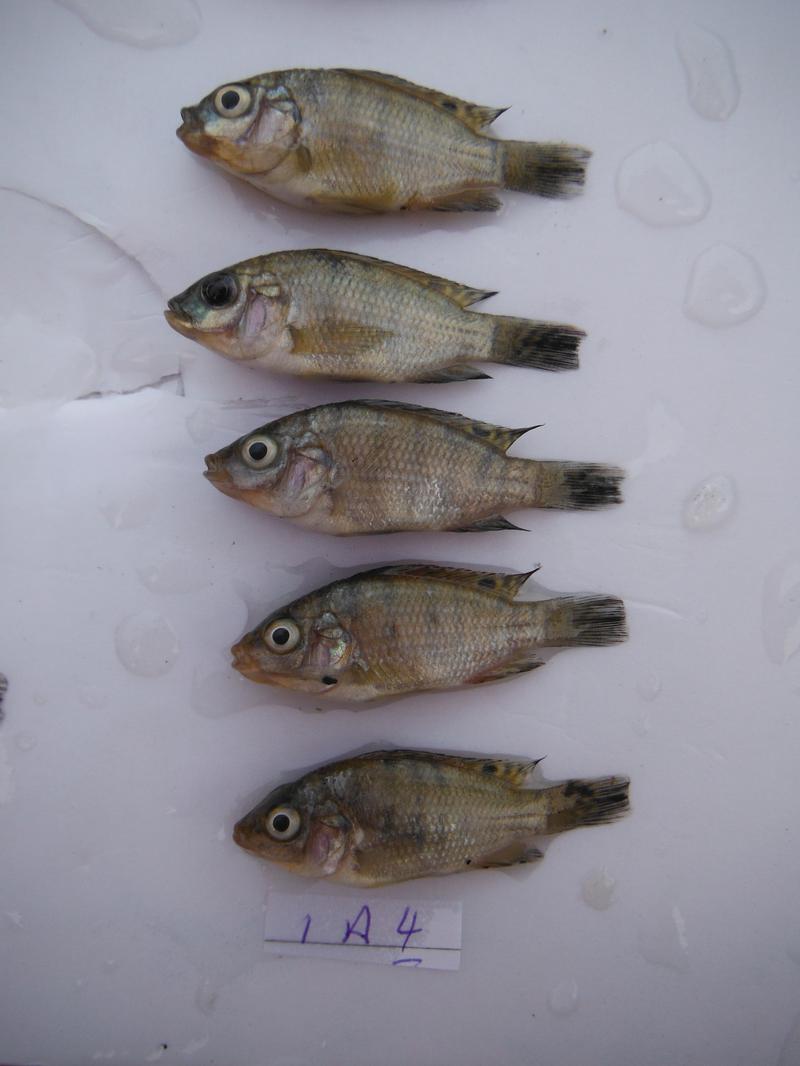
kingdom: Animalia
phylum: Chordata
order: Perciformes
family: Cichlidae
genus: Oreochromis
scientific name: Oreochromis urolepis
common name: Wami tilapia
